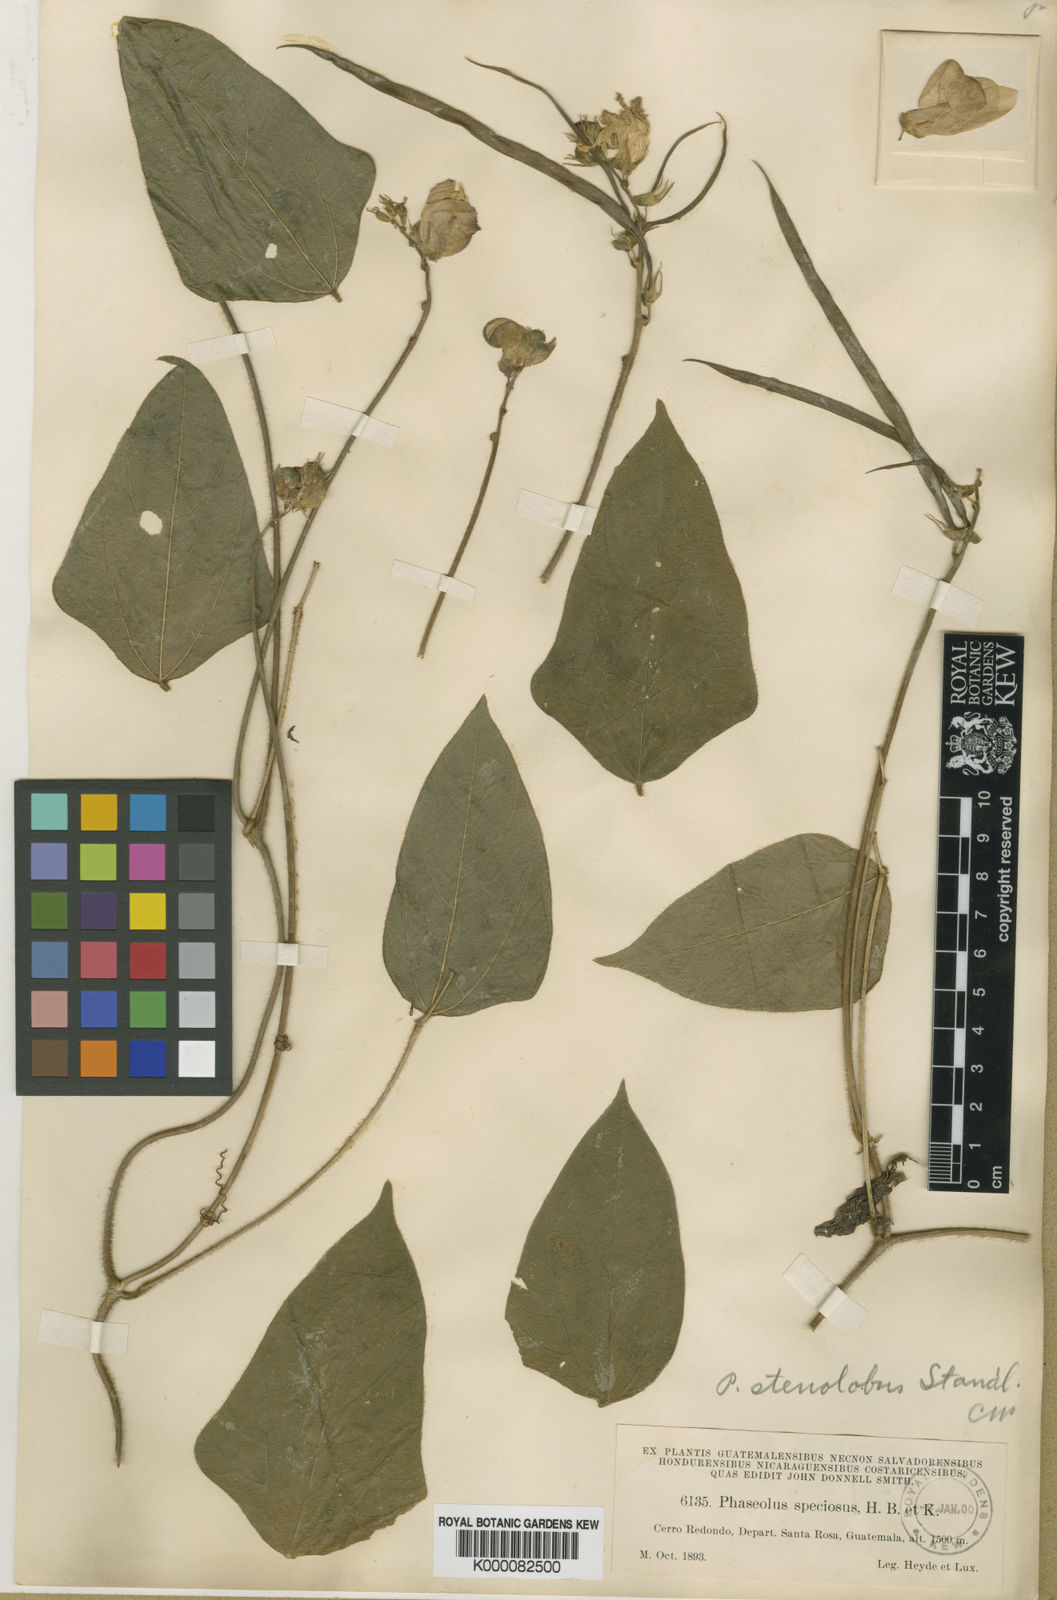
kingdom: Plantae
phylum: Tracheophyta
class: Magnoliopsida
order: Fabales
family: Fabaceae
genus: Helicotropis
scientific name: Helicotropis linearis
